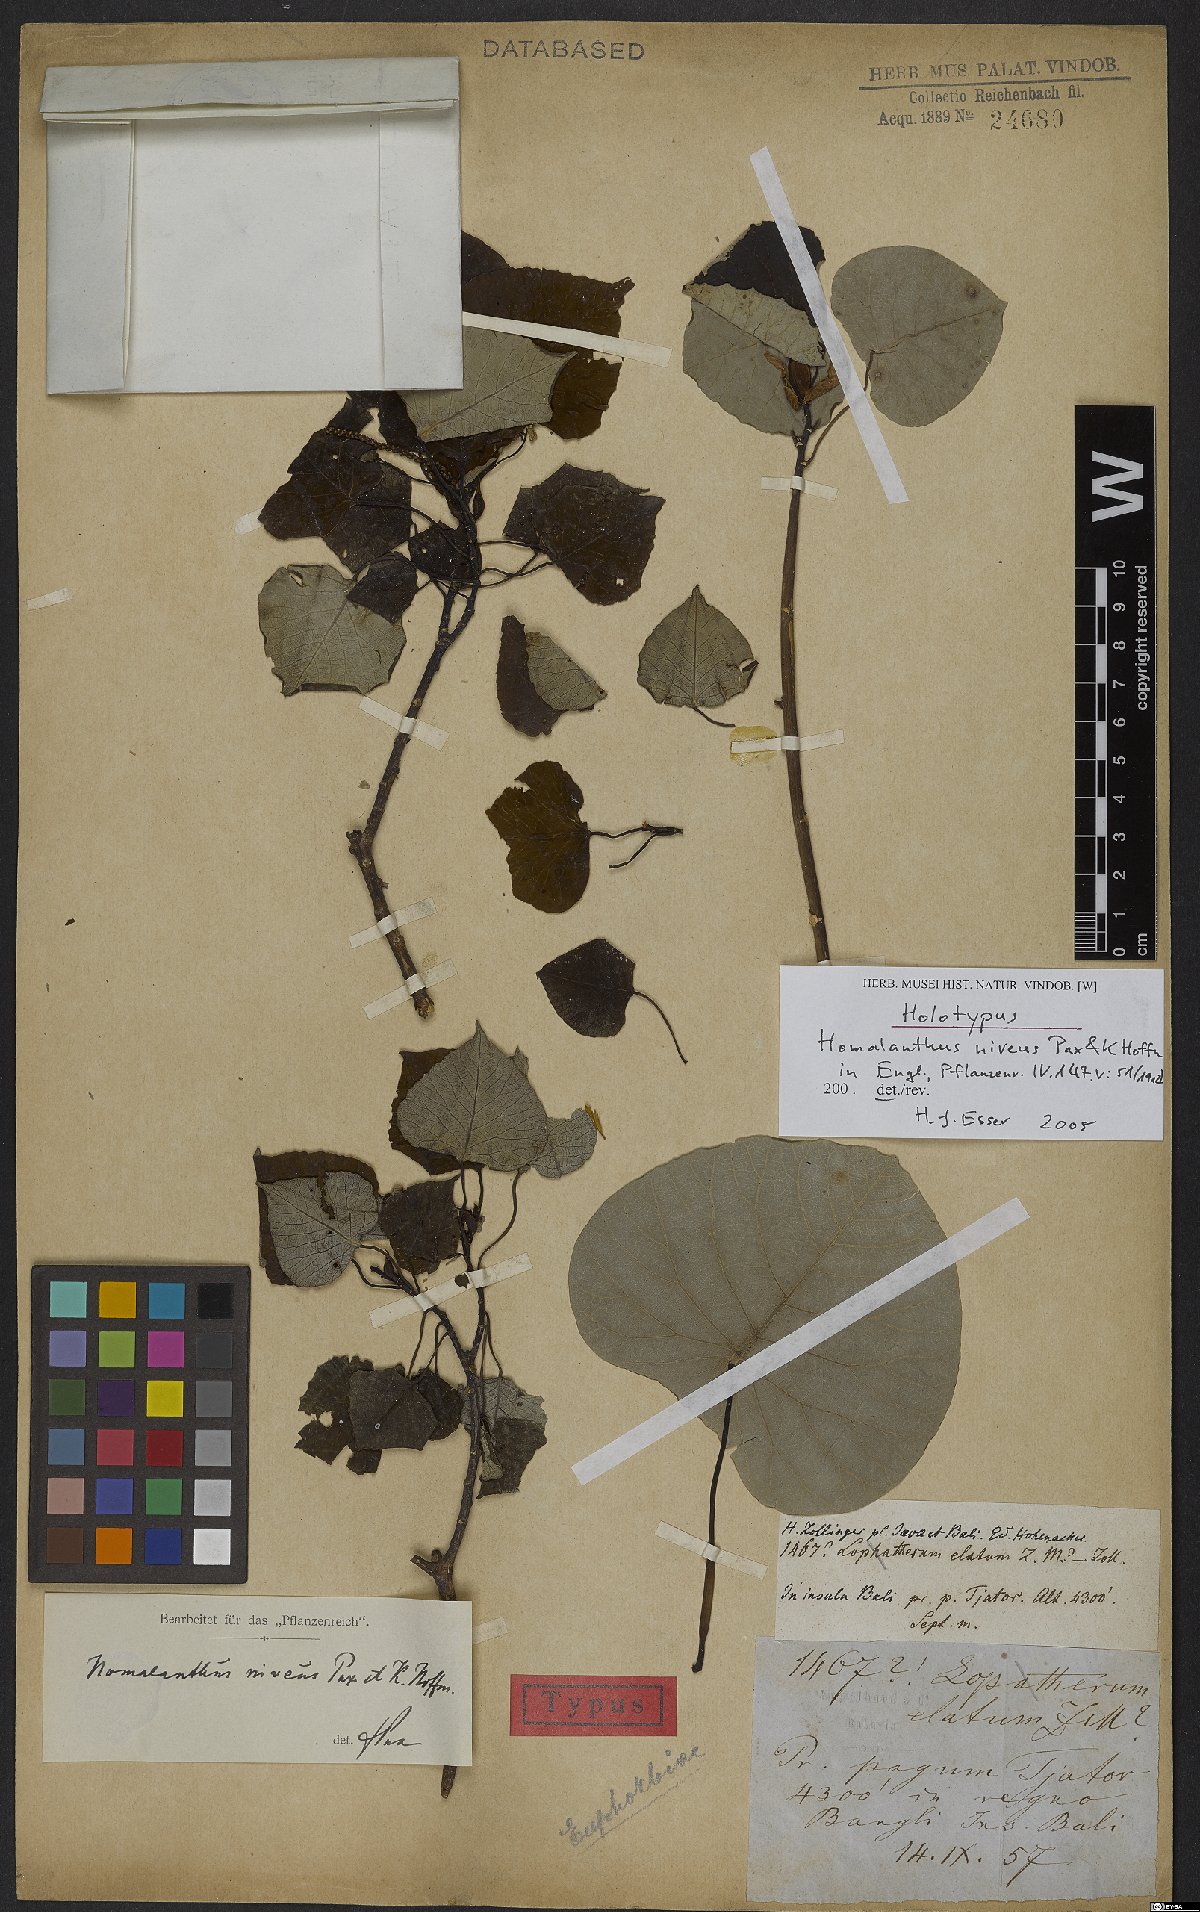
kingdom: Plantae
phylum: Tracheophyta
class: Magnoliopsida
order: Malpighiales
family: Euphorbiaceae
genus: Homalanthus
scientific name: Homalanthus giganteus
